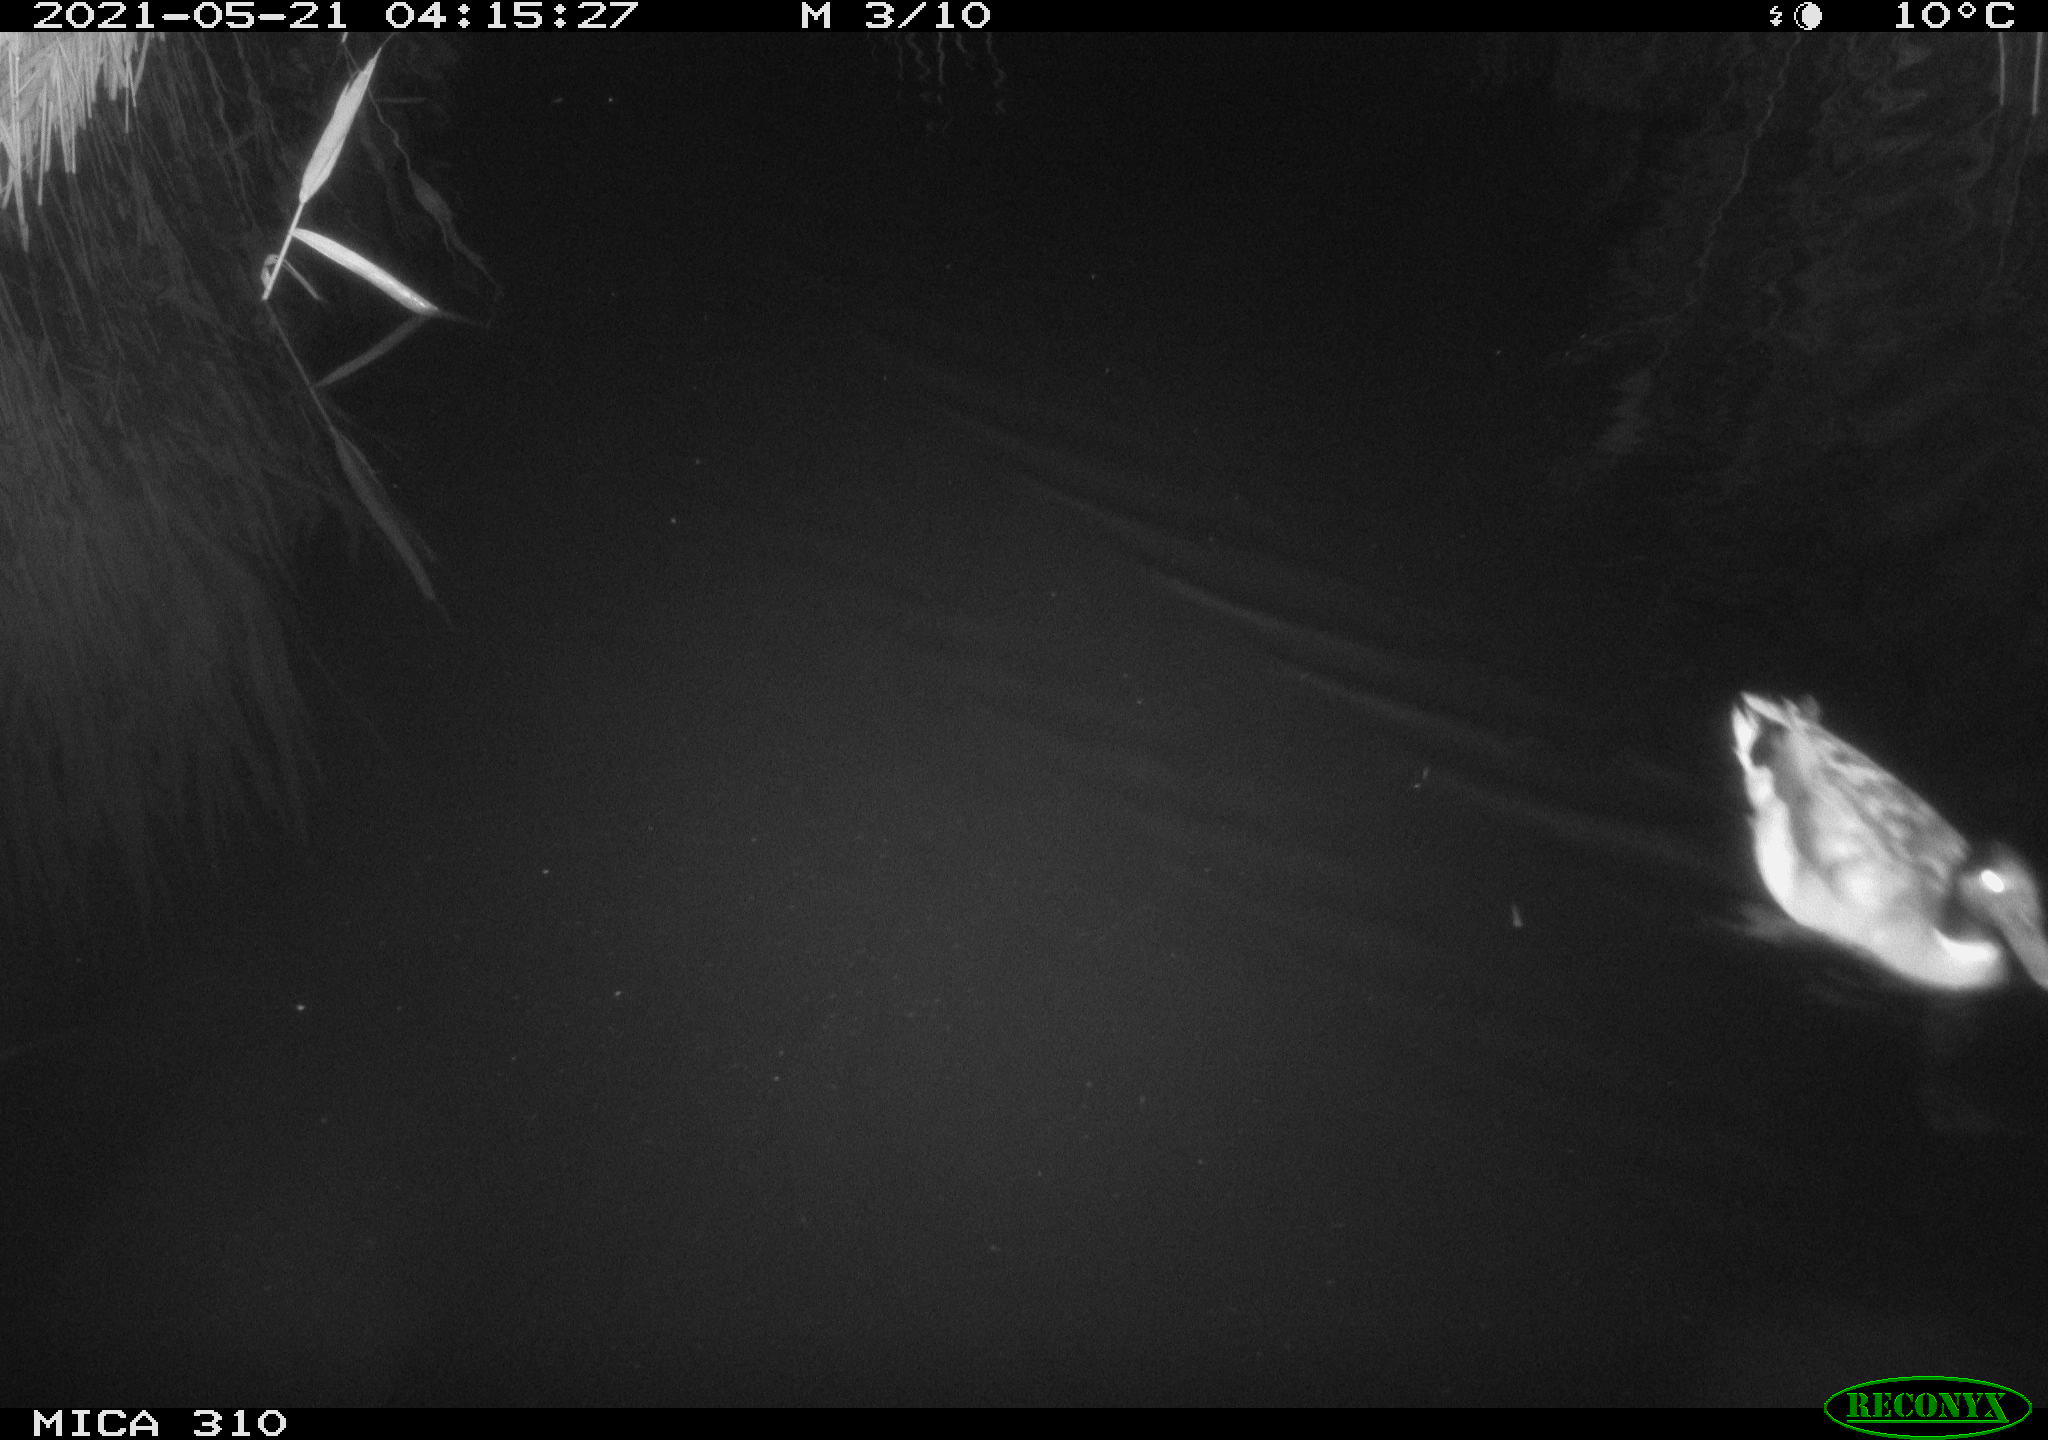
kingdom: Animalia
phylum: Chordata
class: Aves
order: Anseriformes
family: Anatidae
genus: Anas
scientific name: Anas platyrhynchos
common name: Mallard
